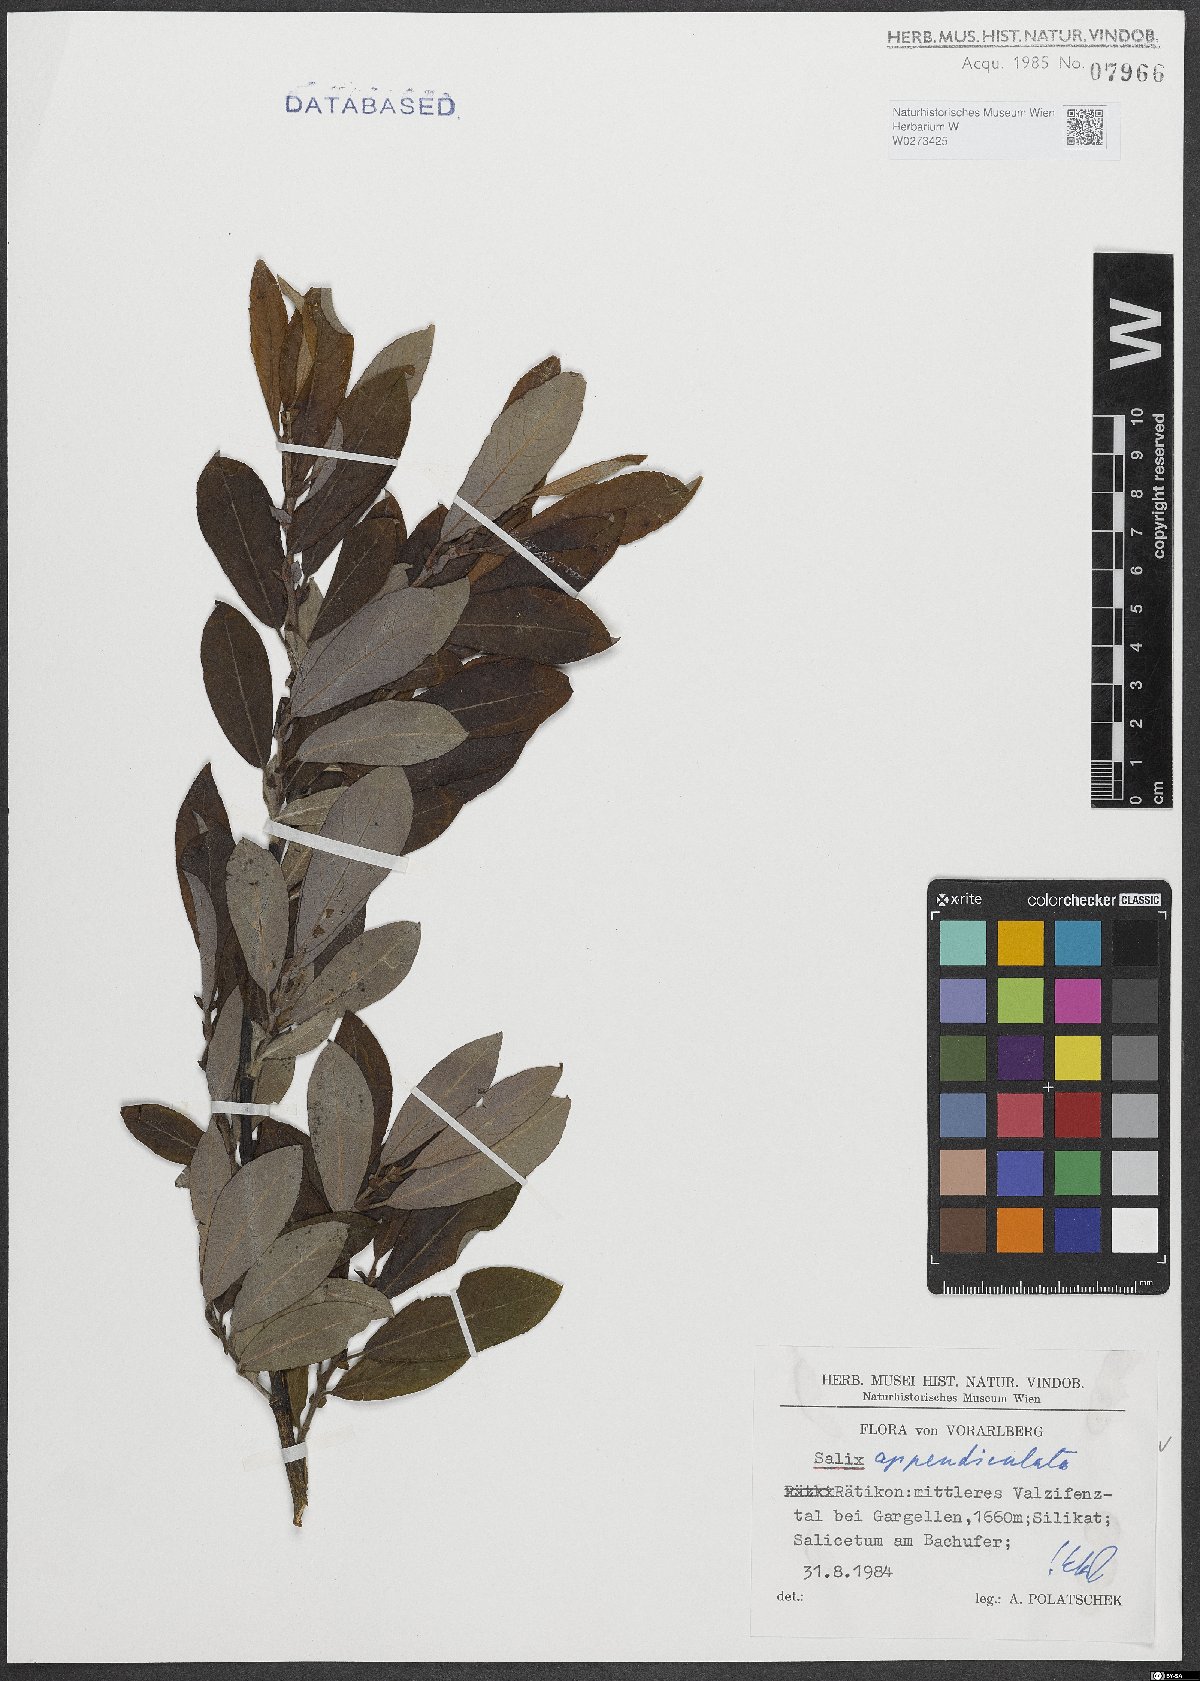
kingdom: Plantae
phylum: Tracheophyta
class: Magnoliopsida
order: Malpighiales
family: Salicaceae
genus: Salix
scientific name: Salix appendiculata
